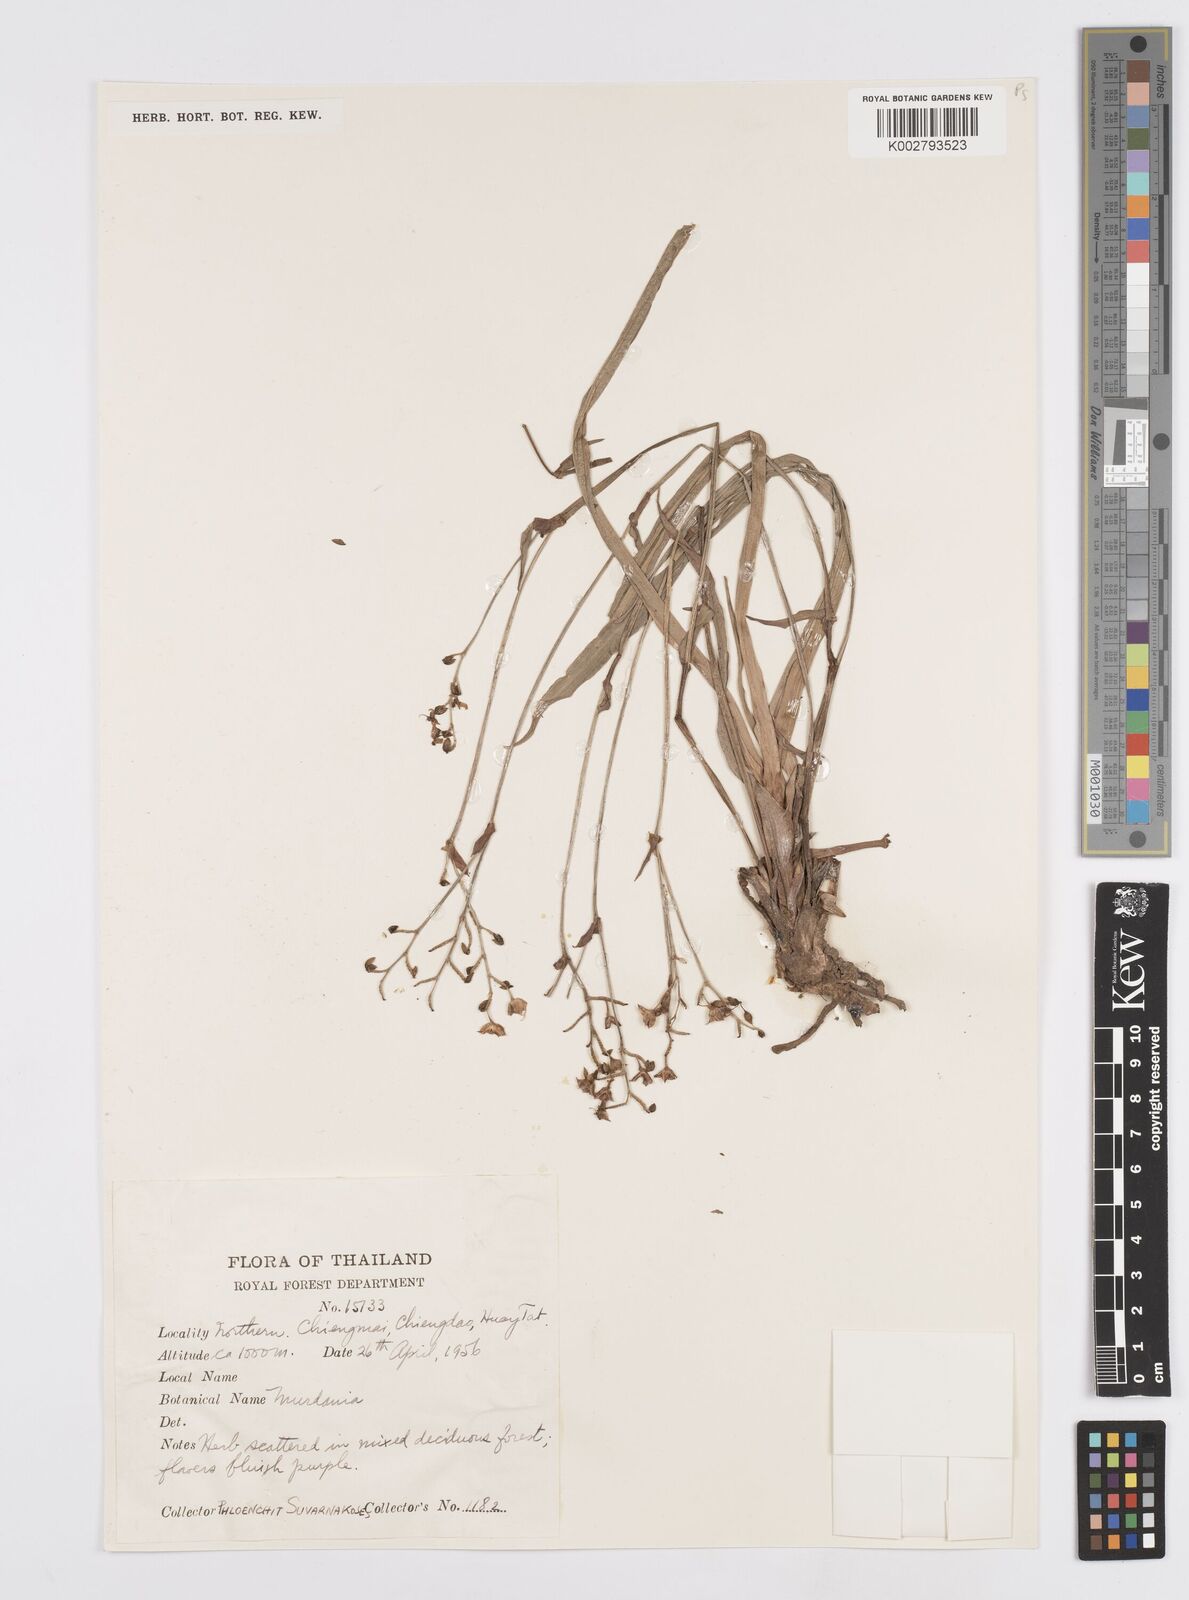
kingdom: Plantae
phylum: Tracheophyta
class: Liliopsida
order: Commelinales
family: Commelinaceae
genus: Murdannia
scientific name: Murdannia
